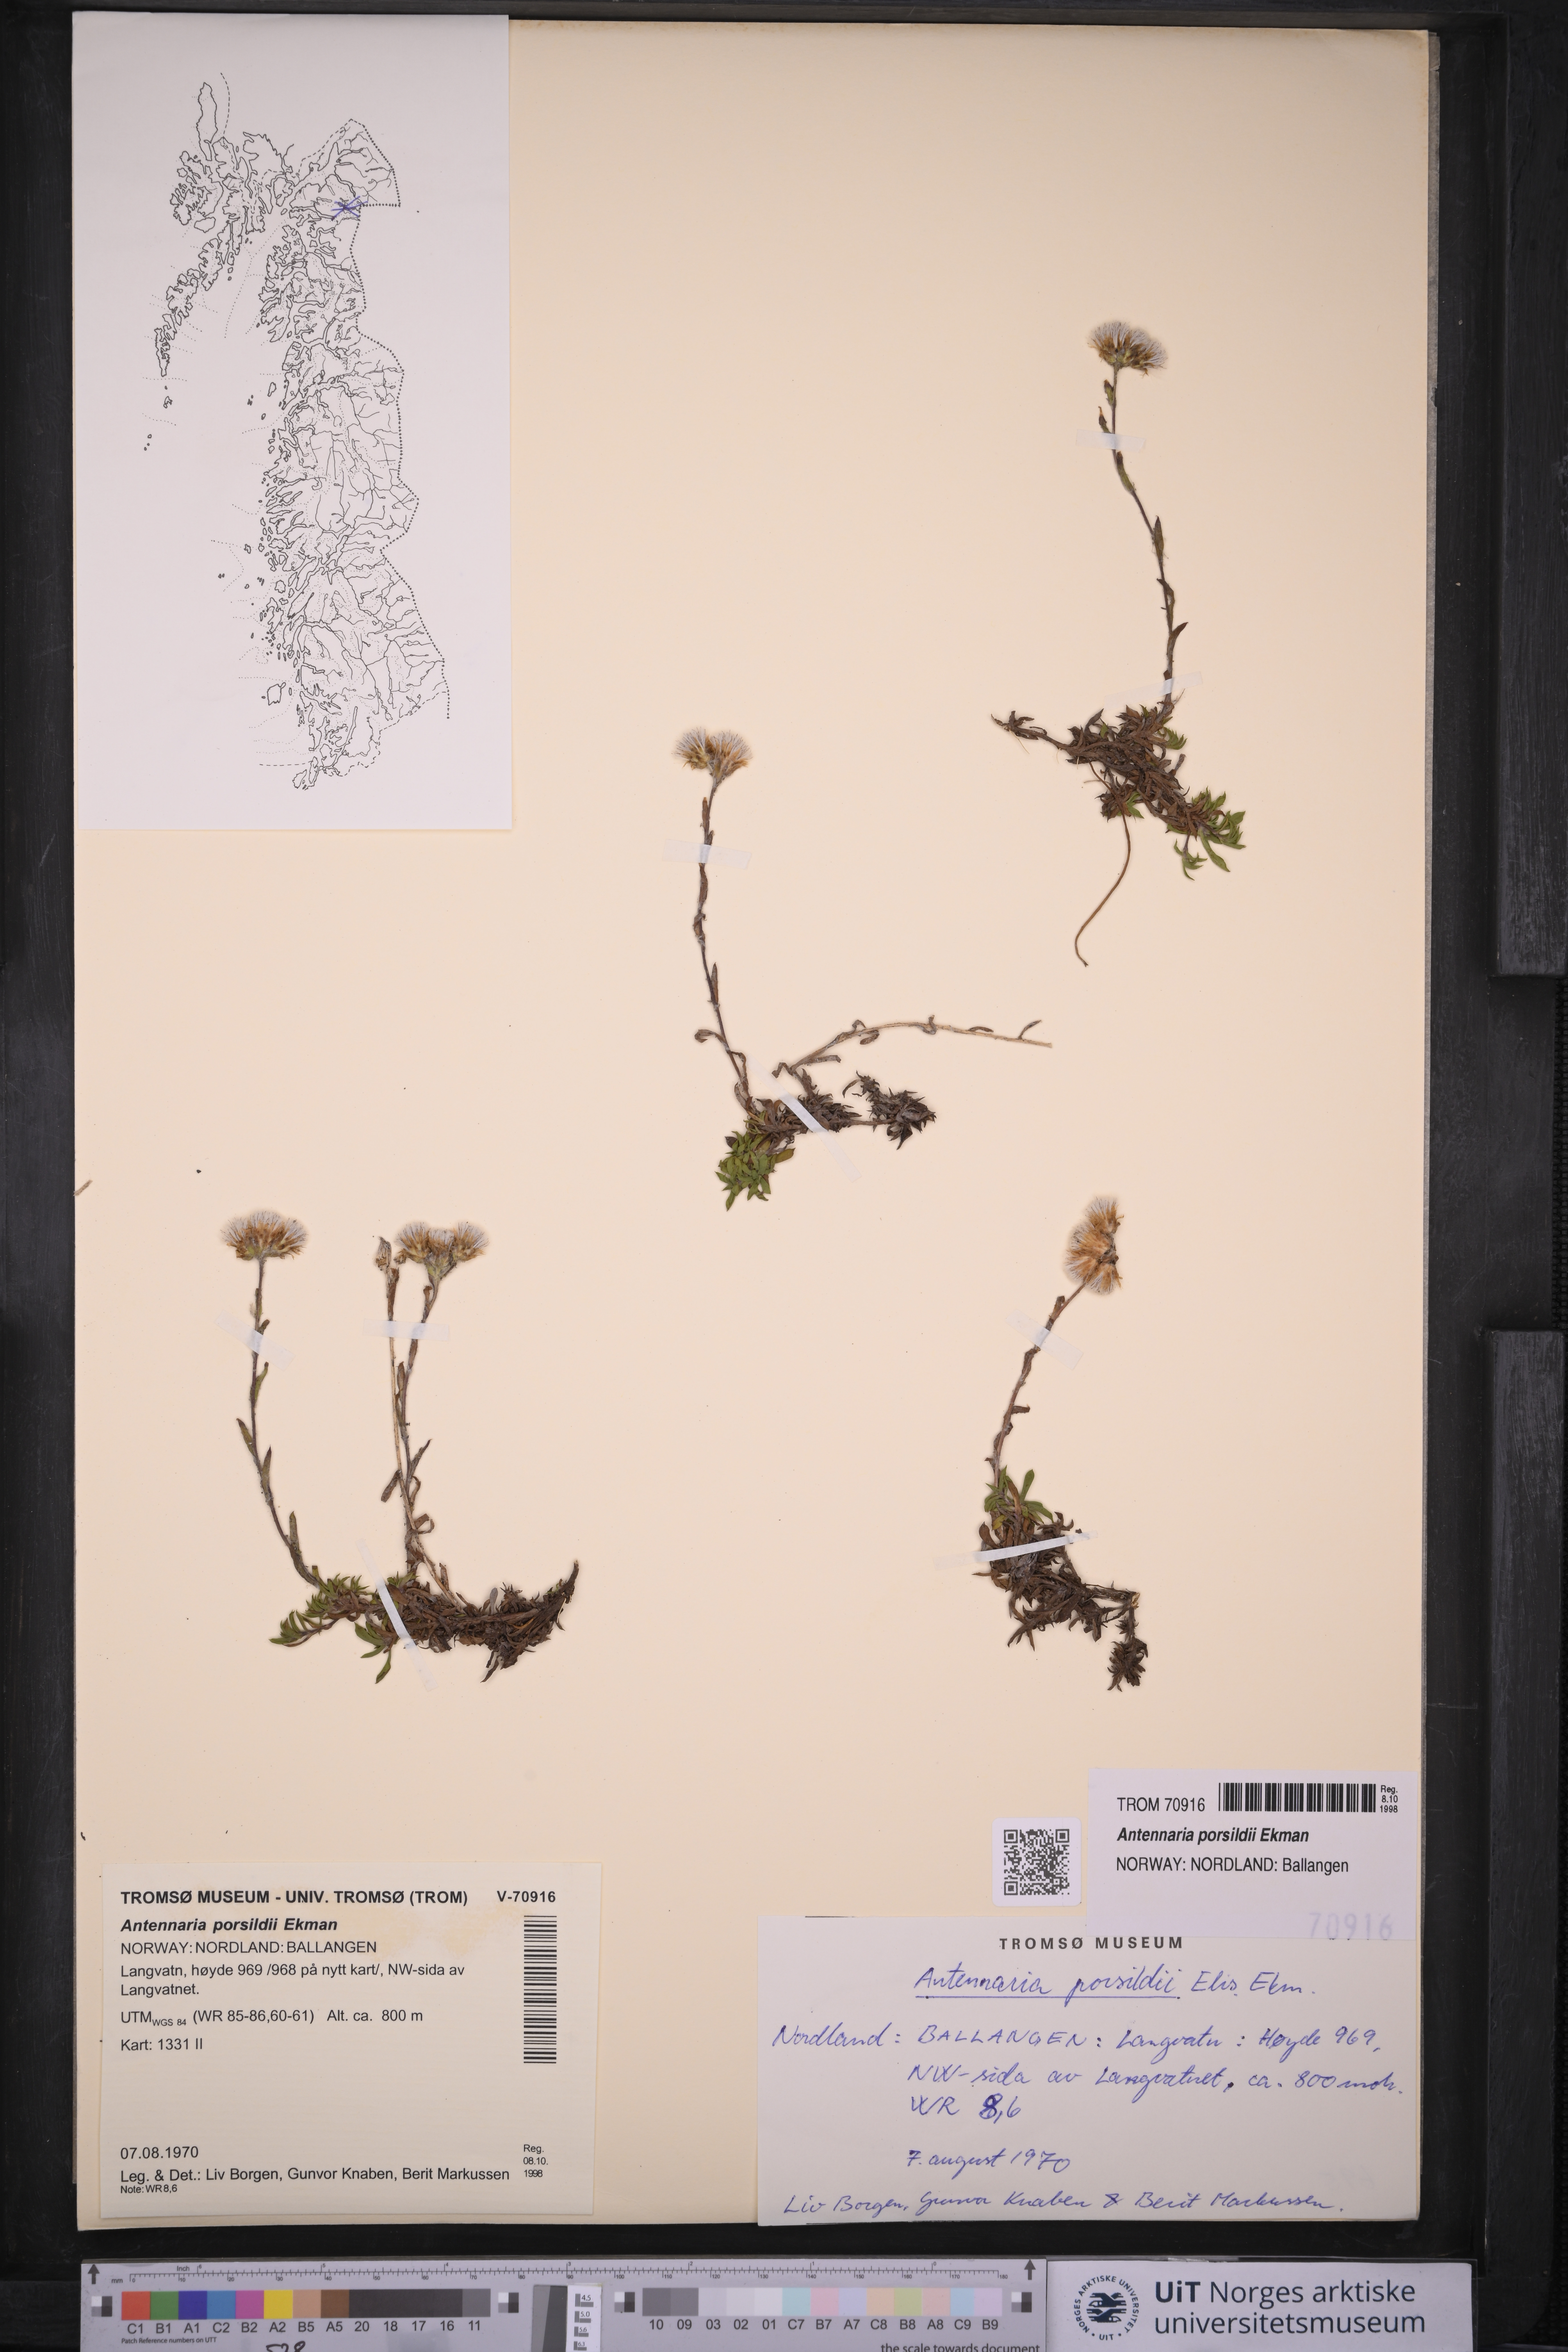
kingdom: Plantae
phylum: Tracheophyta
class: Magnoliopsida
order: Asterales
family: Asteraceae
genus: Antennaria
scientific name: Antennaria porsildii
